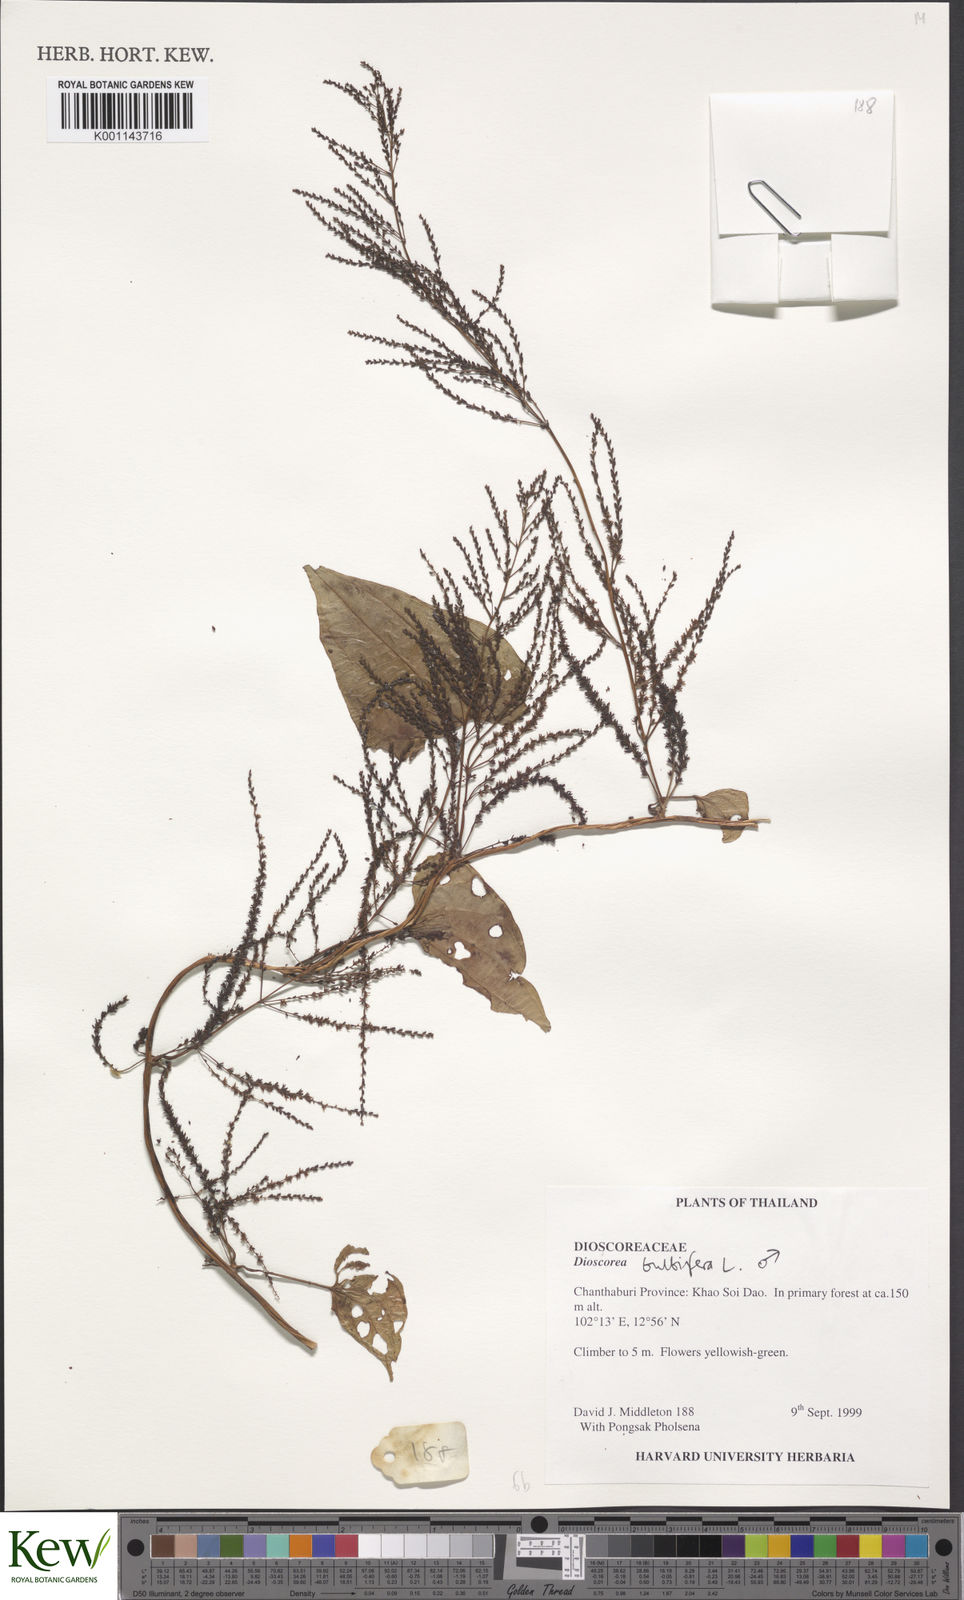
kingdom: Plantae
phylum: Tracheophyta
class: Liliopsida
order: Dioscoreales
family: Dioscoreaceae
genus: Dioscorea
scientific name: Dioscorea bulbifera
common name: Air yam
